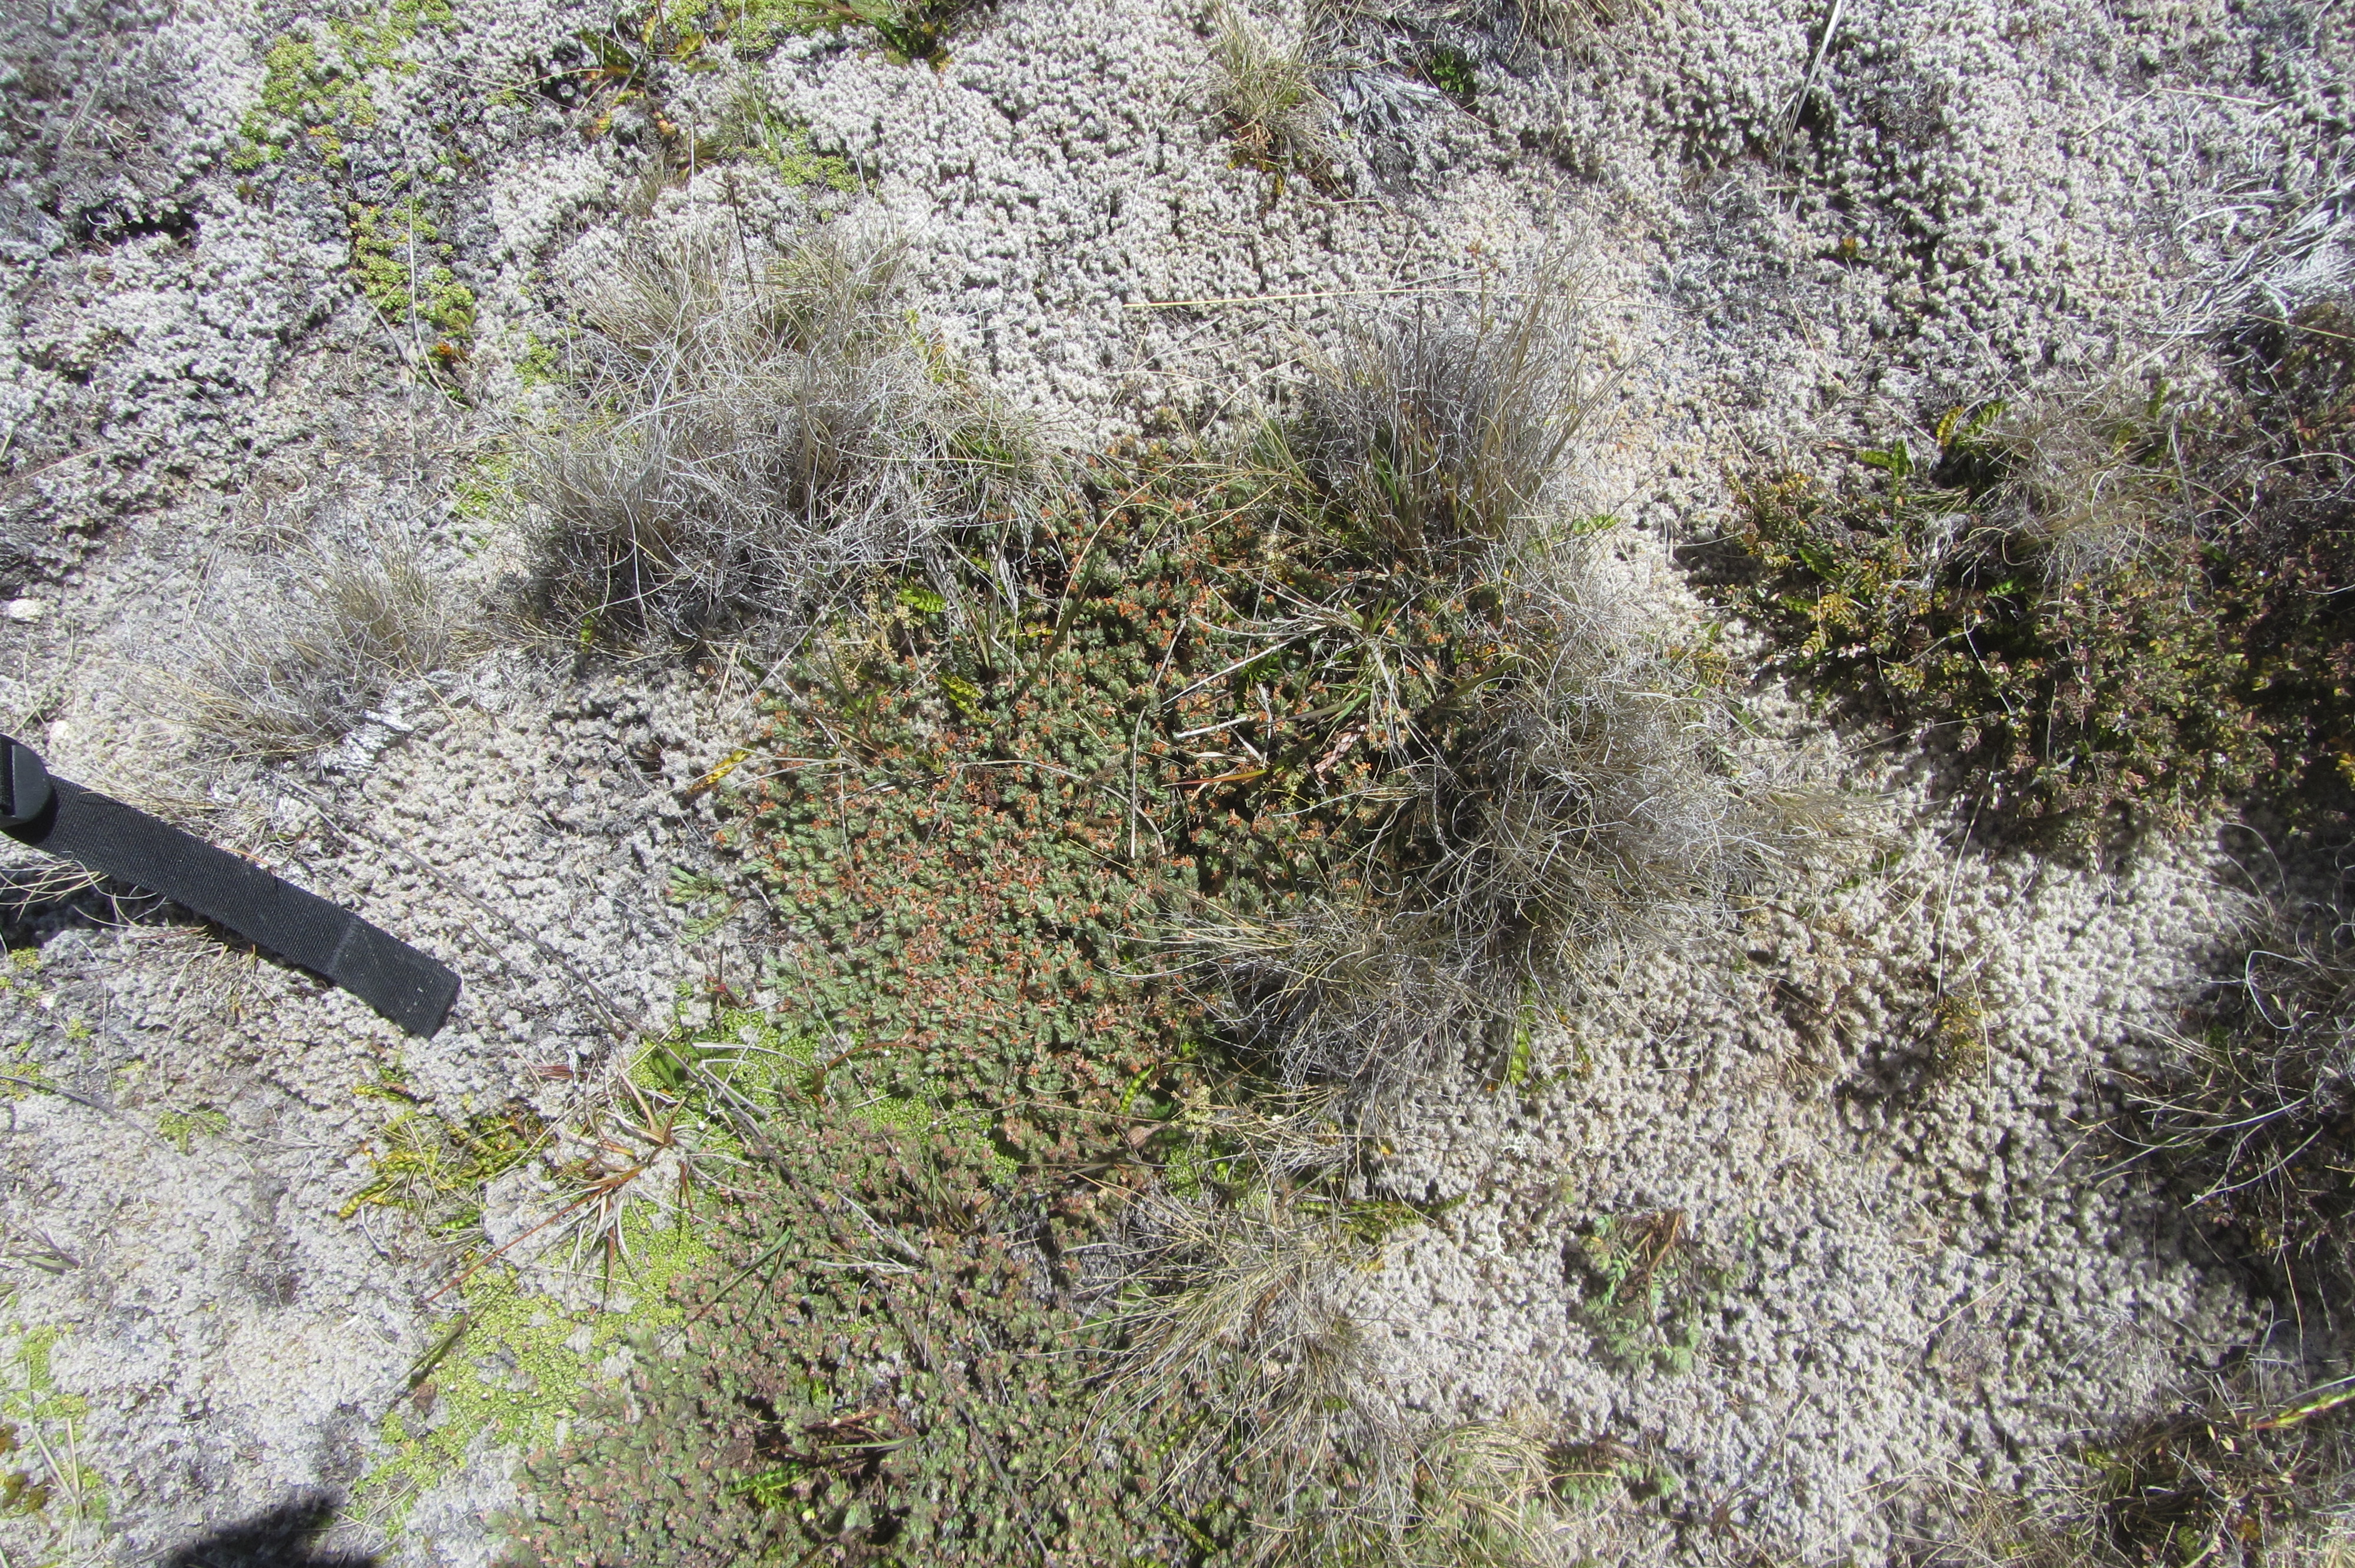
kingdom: Plantae
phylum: Tracheophyta
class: Magnoliopsida
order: Malvales
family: Thymelaeaceae
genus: Pimelea
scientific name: Pimelea mesoa
